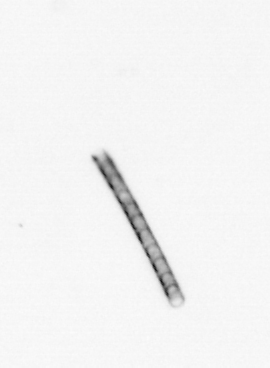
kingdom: Chromista
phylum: Ochrophyta
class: Bacillariophyceae
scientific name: Bacillariophyceae
